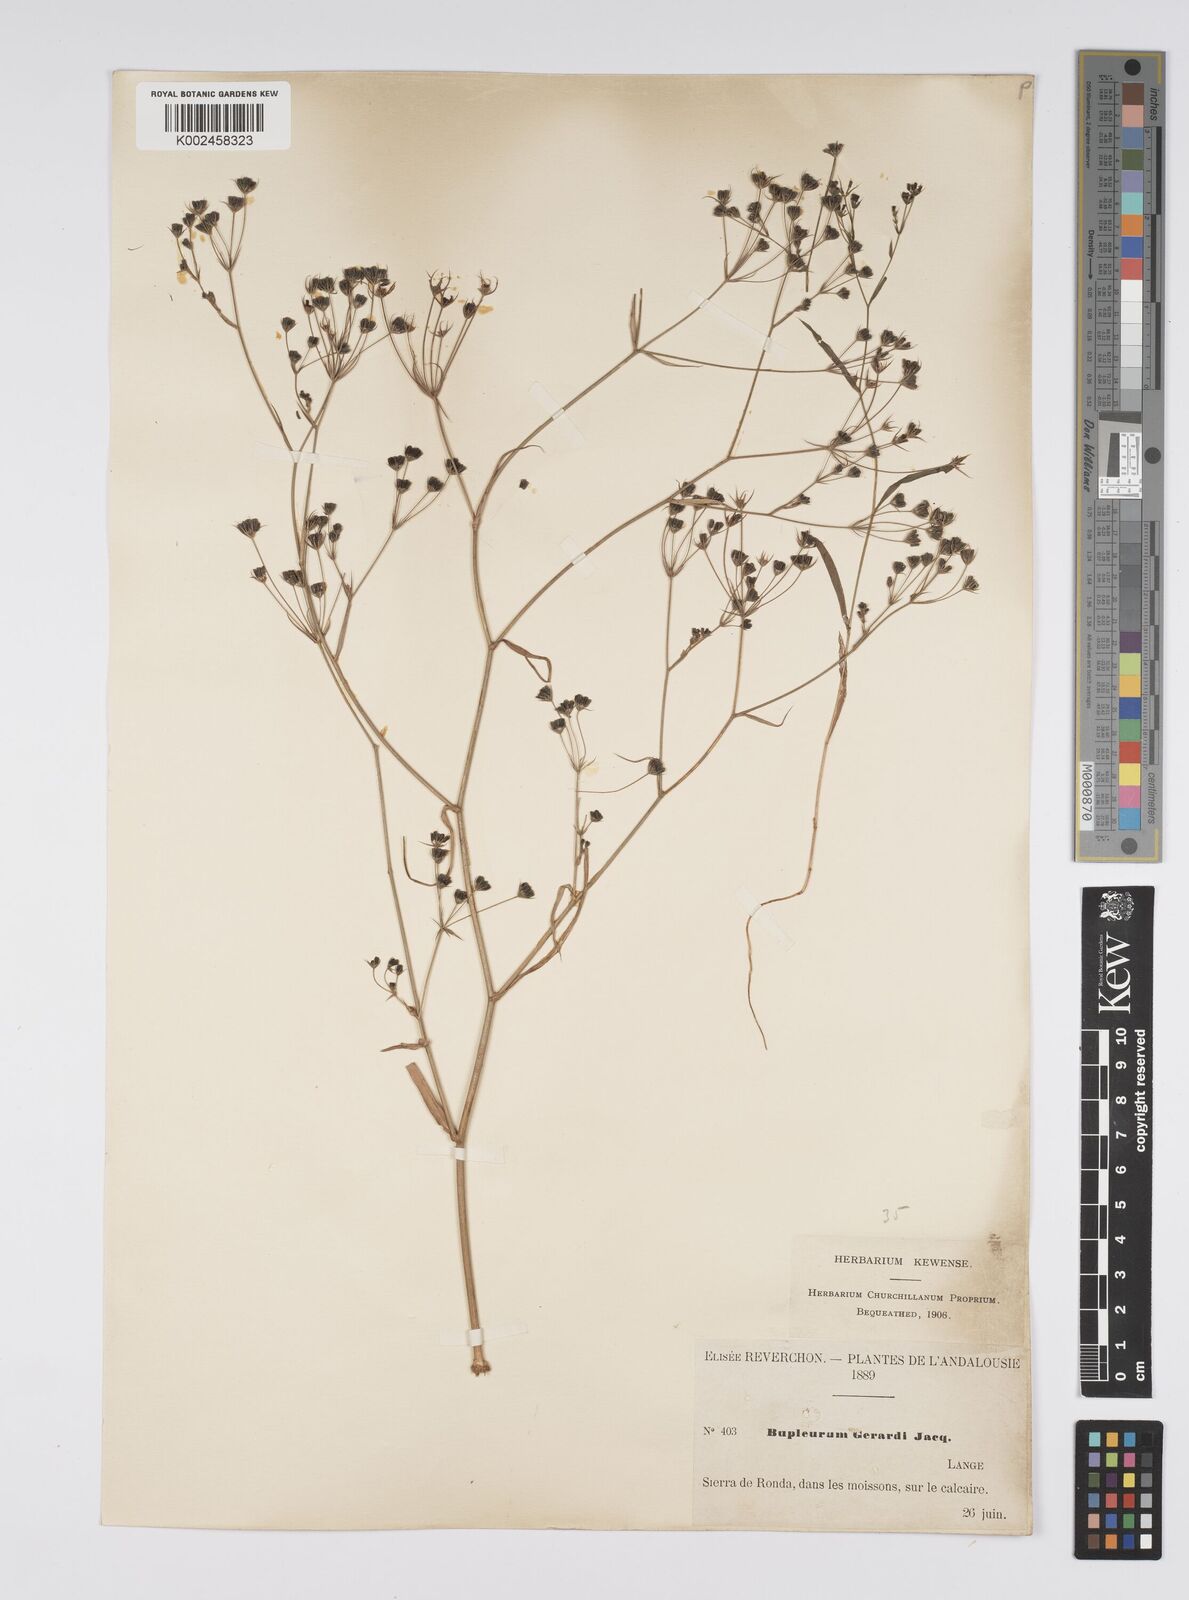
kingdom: Plantae
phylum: Tracheophyta
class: Magnoliopsida
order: Apiales
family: Apiaceae
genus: Bupleurum
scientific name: Bupleurum gerardi
